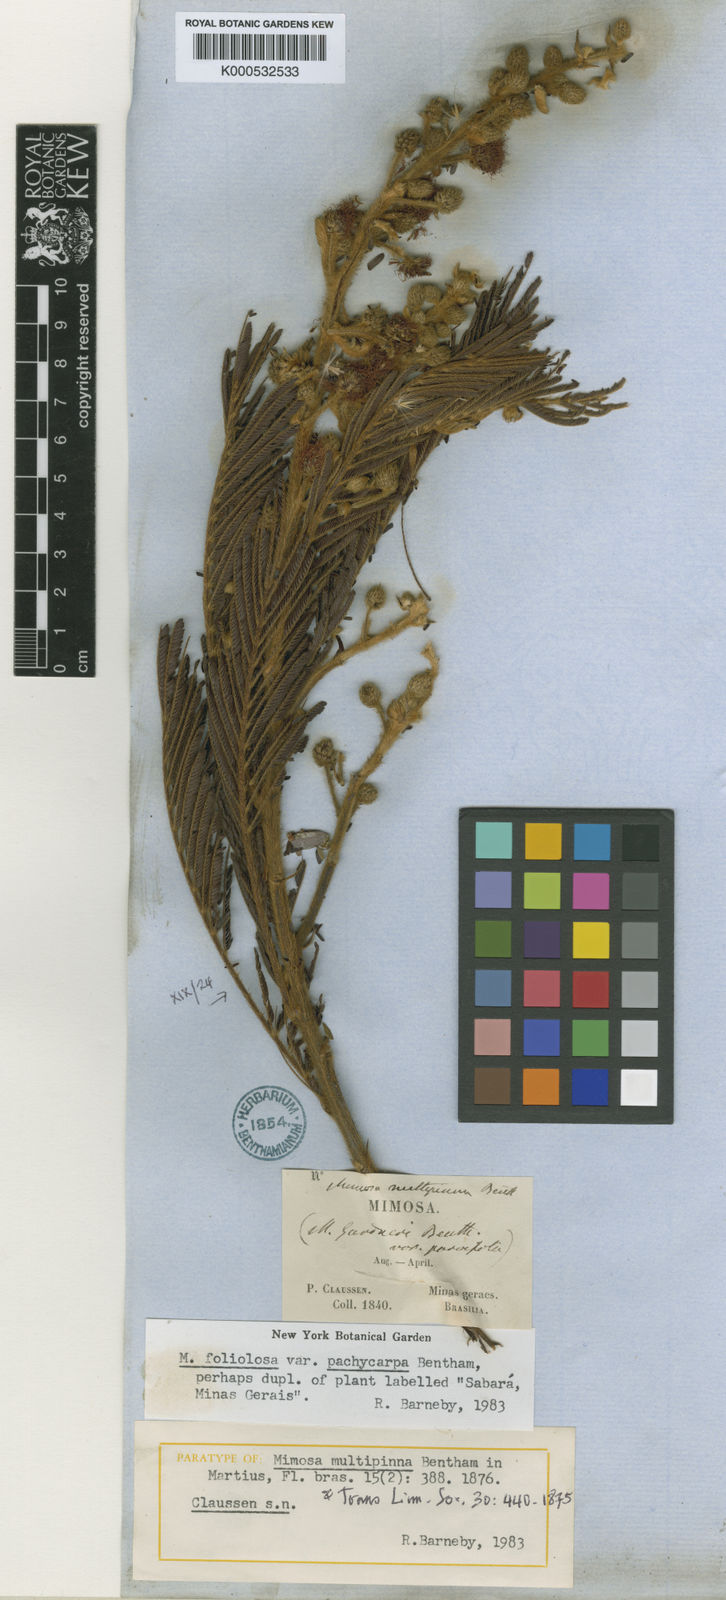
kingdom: Plantae
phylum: Tracheophyta
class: Magnoliopsida
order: Fabales
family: Fabaceae
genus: Mimosa
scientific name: Mimosa foliolosa
